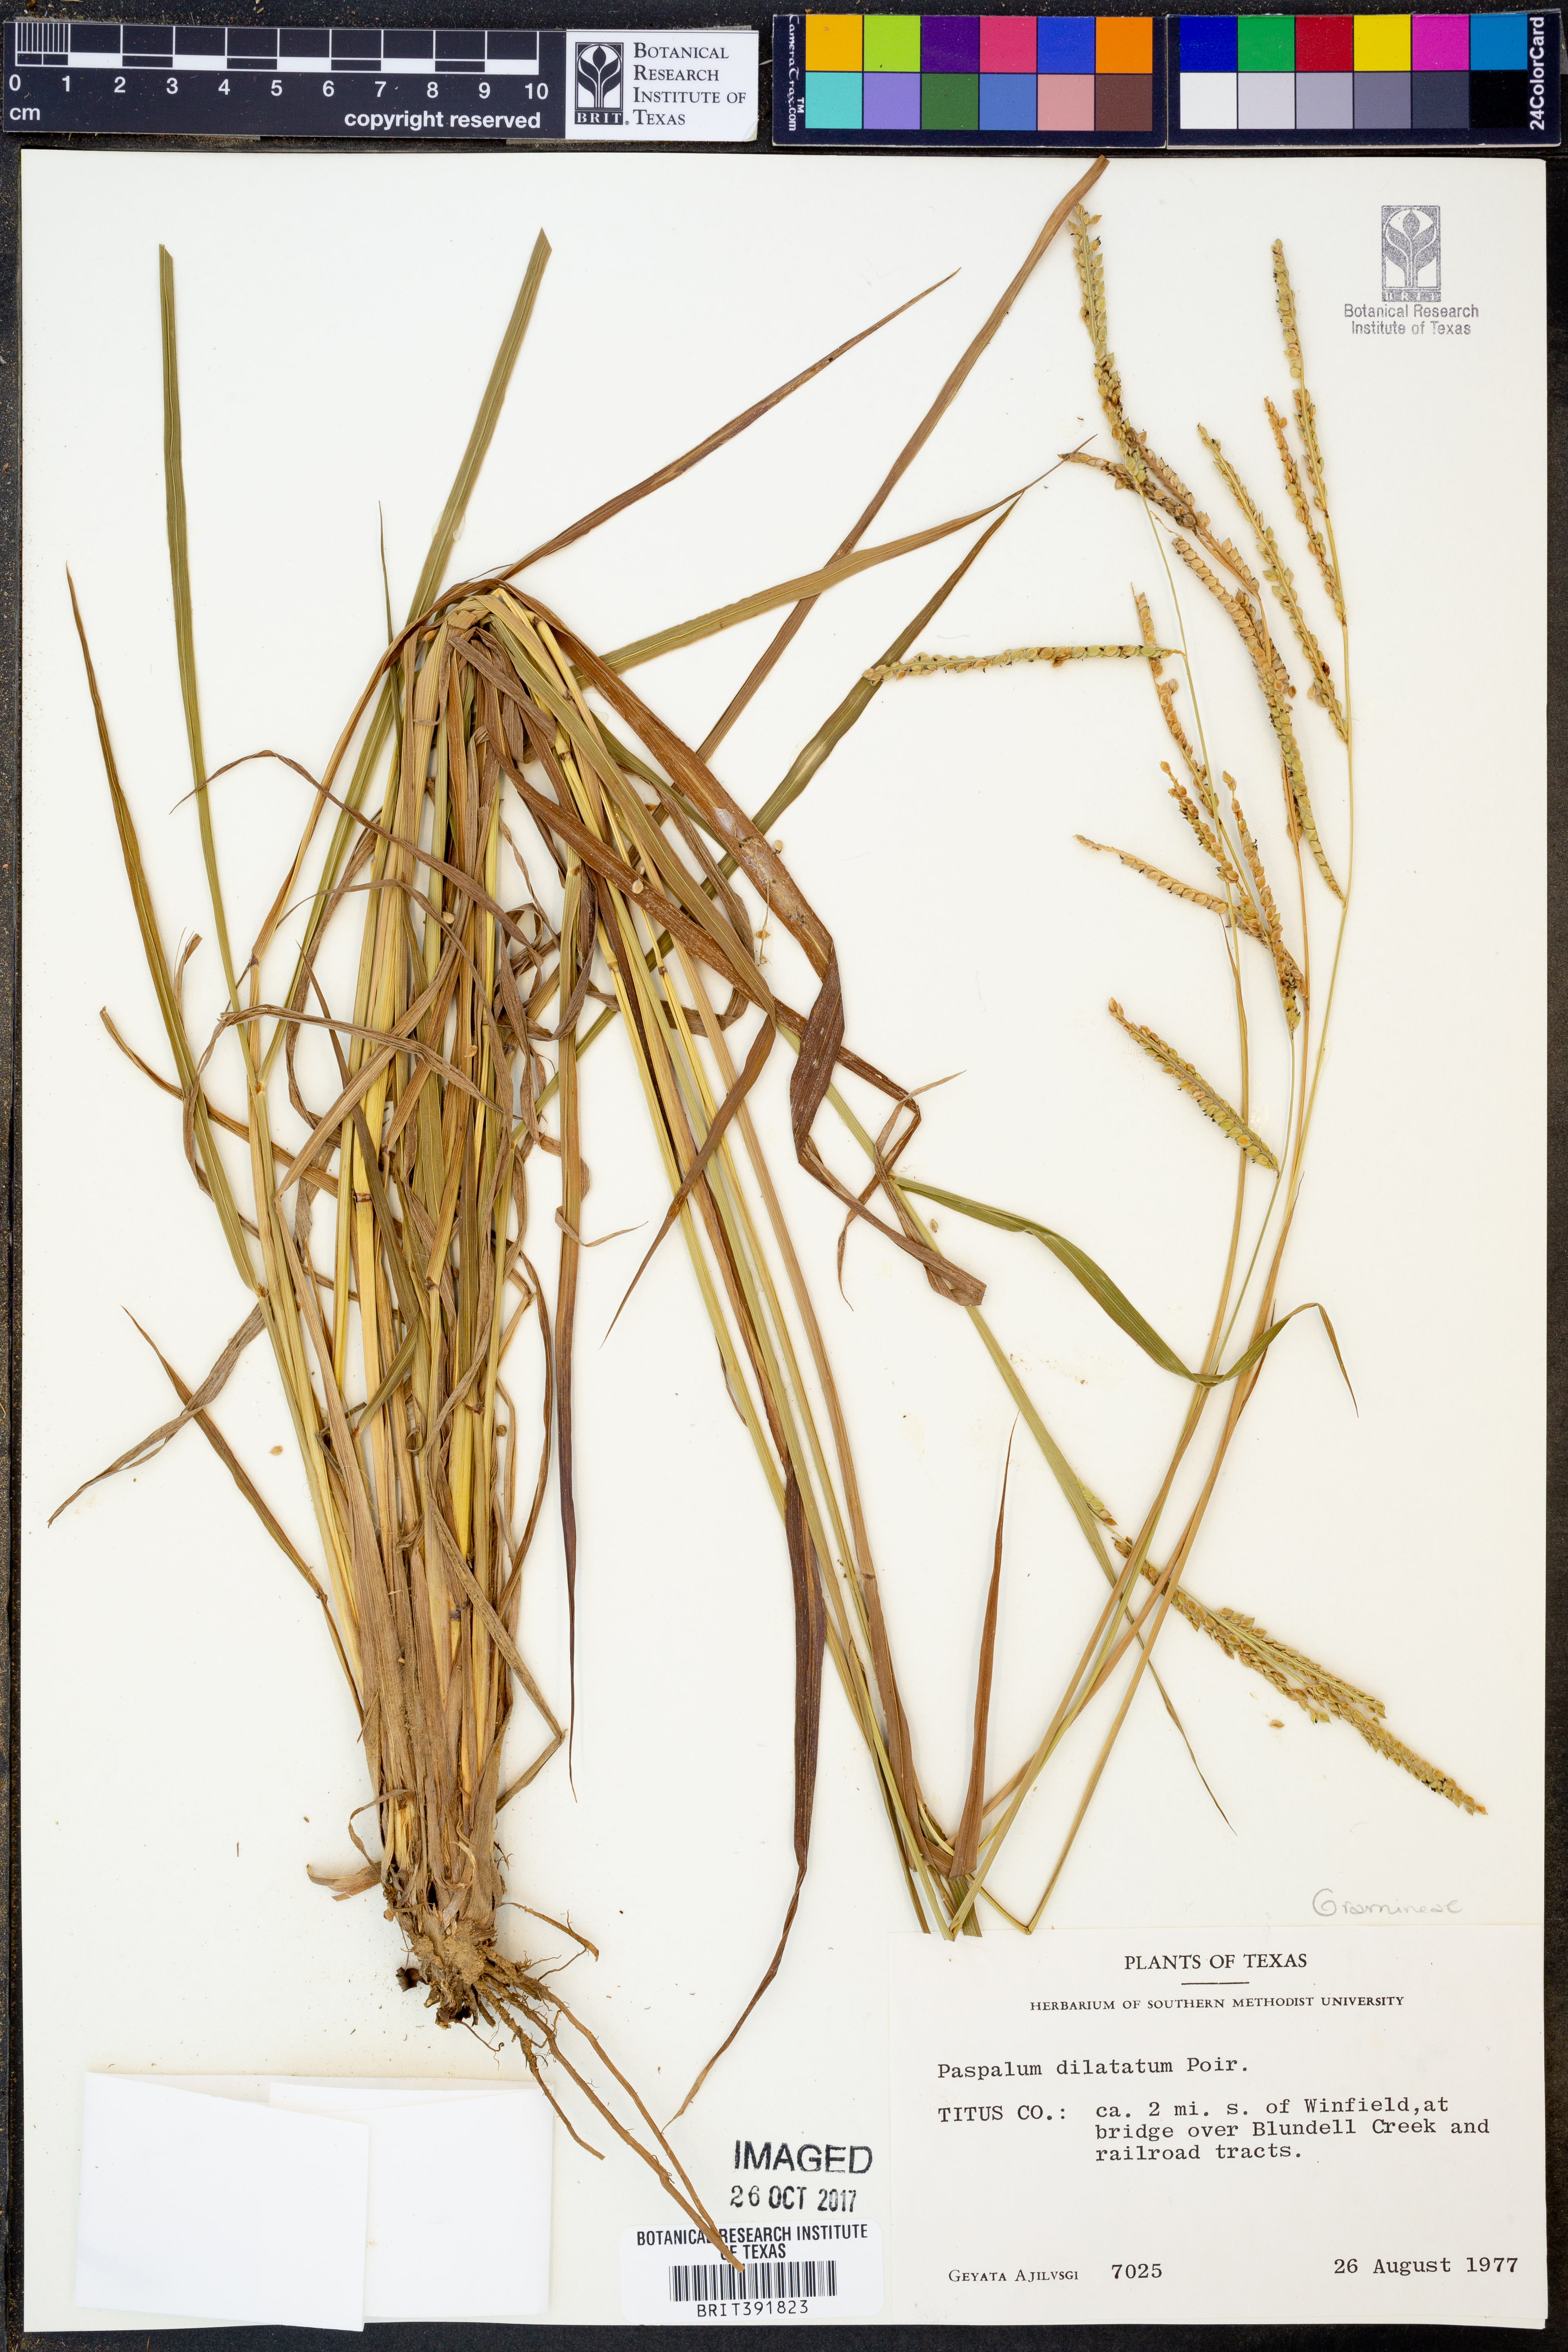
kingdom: Plantae
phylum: Tracheophyta
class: Liliopsida
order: Poales
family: Poaceae
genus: Paspalum
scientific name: Paspalum dilatatum
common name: Dallisgrass
